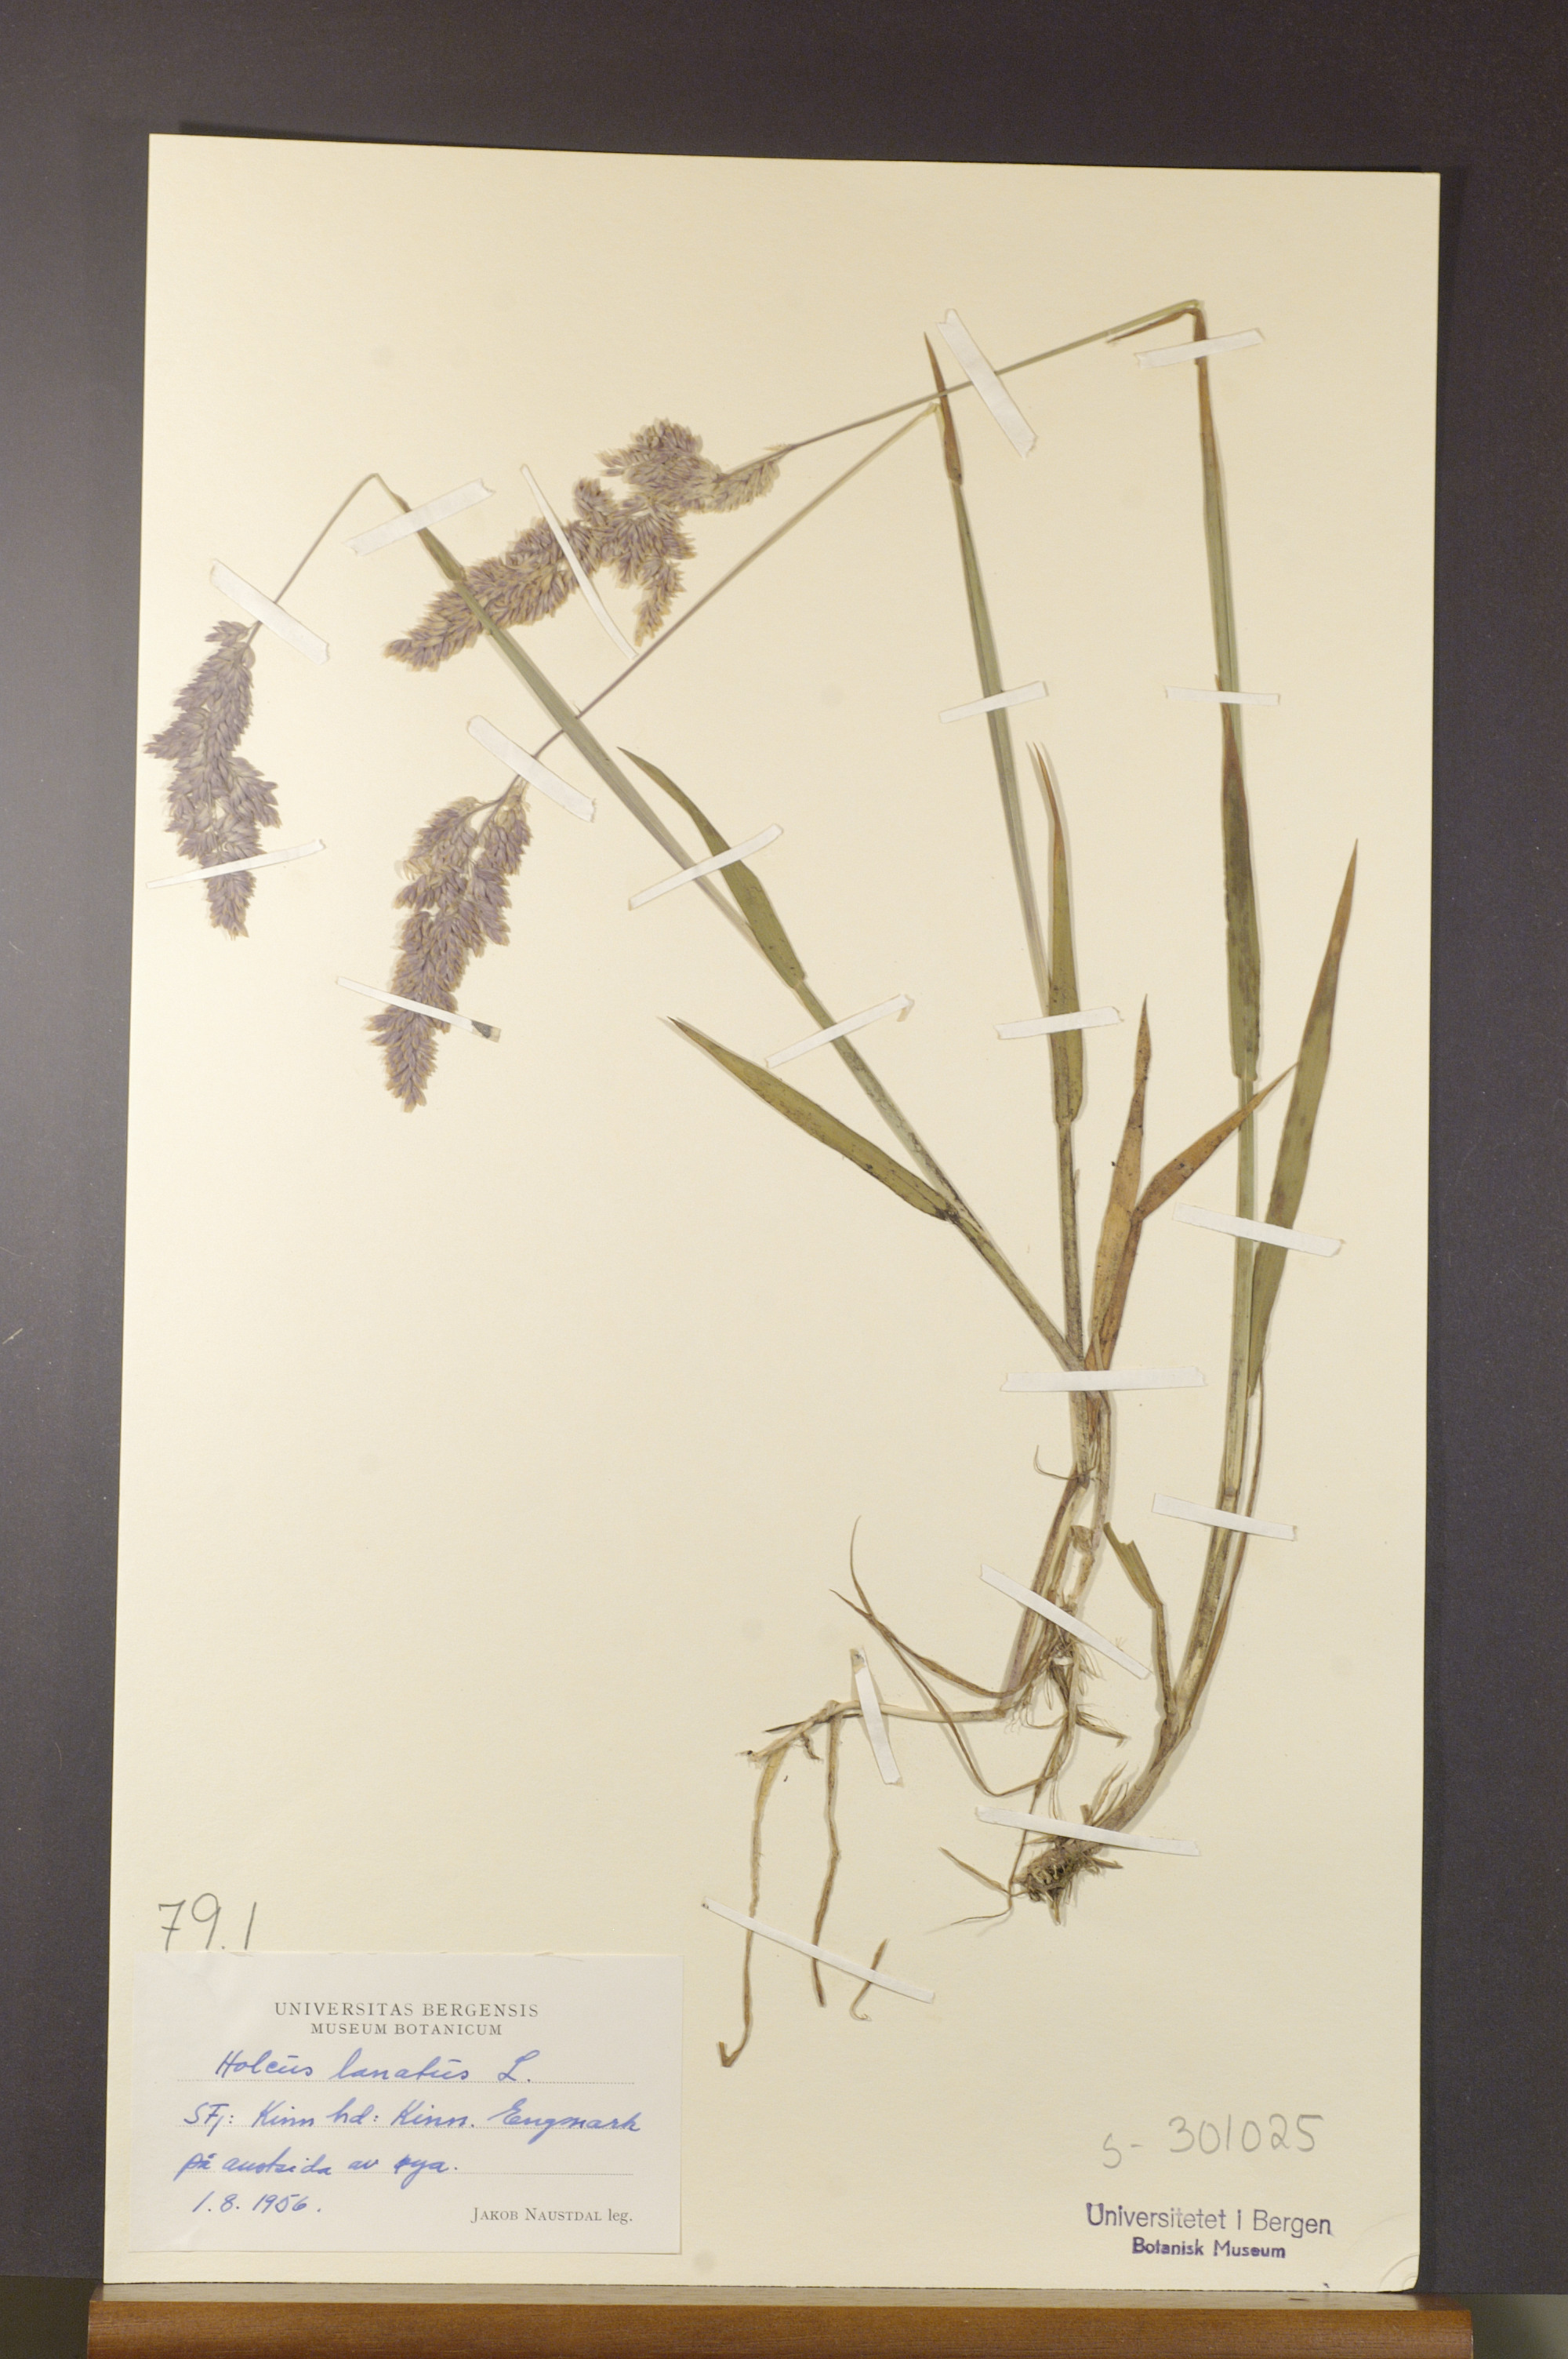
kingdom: Plantae
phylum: Tracheophyta
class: Liliopsida
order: Poales
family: Poaceae
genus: Holcus
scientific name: Holcus lanatus
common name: Yorkshire-fog
